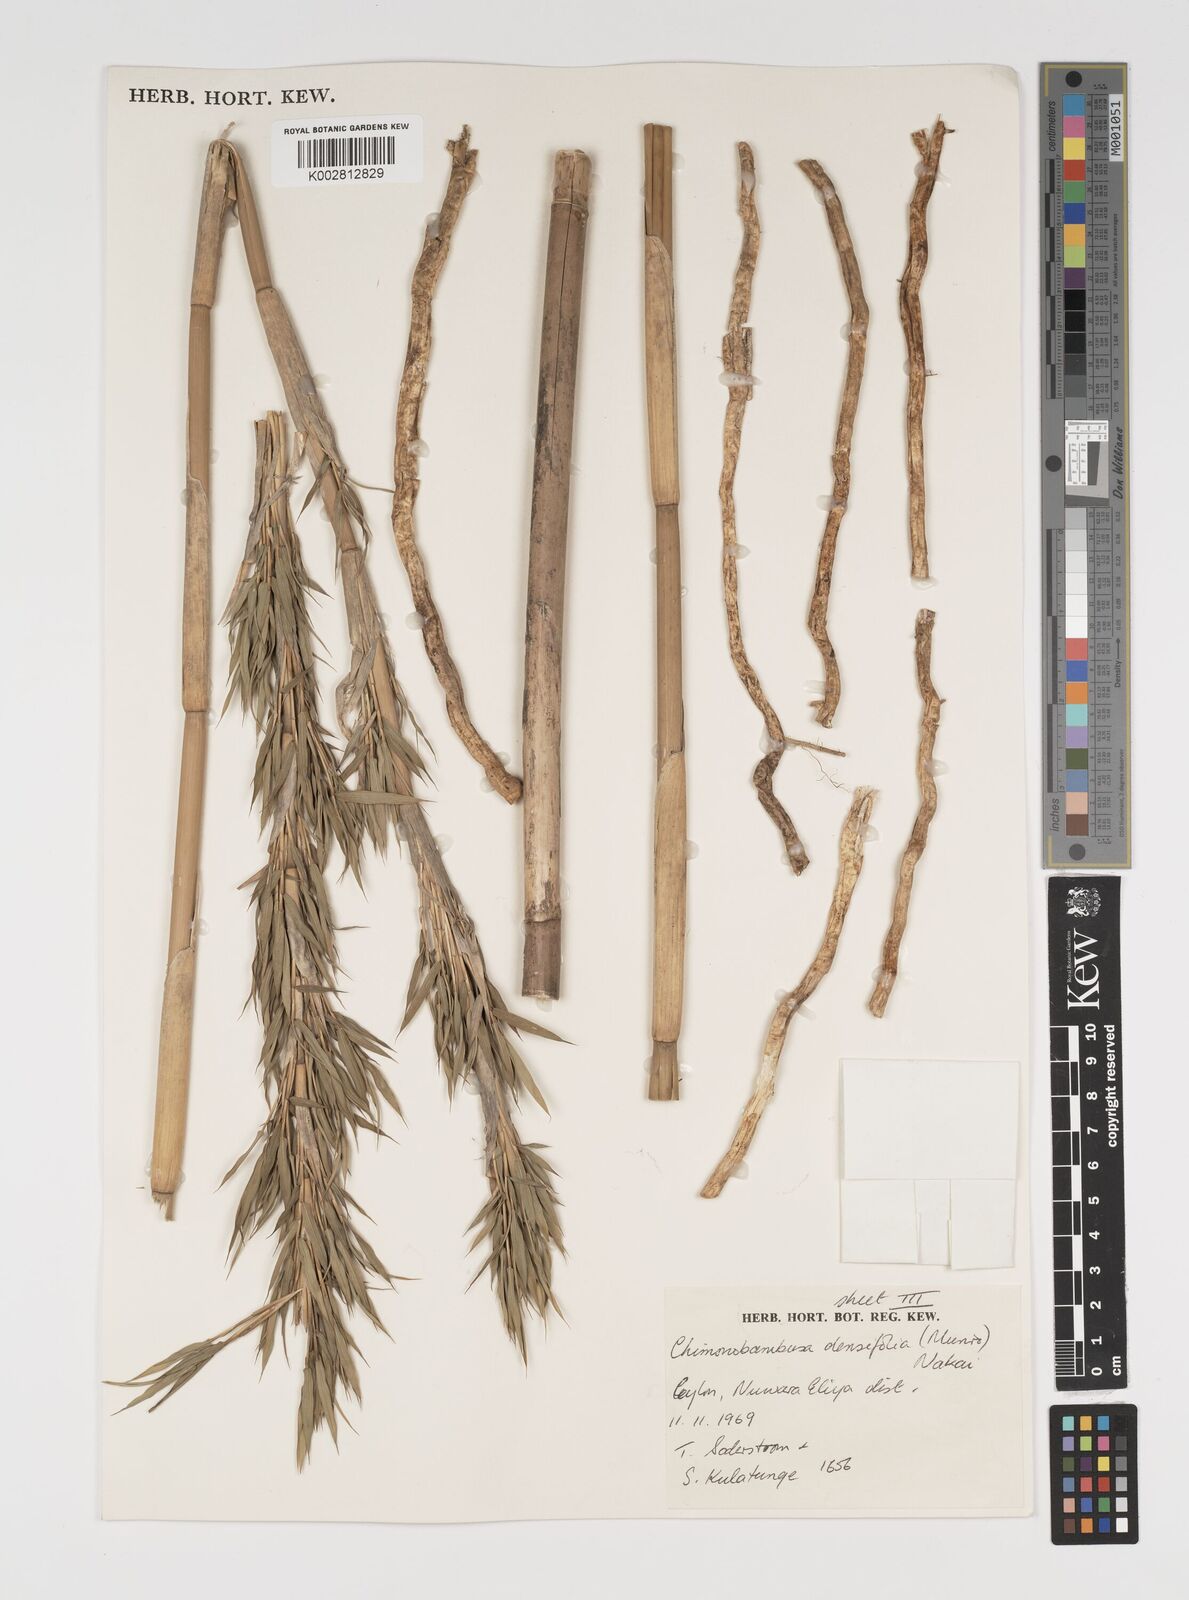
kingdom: Plantae
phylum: Tracheophyta
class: Liliopsida
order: Poales
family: Poaceae
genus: Brachystachyum
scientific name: Brachystachyum densiflorum
